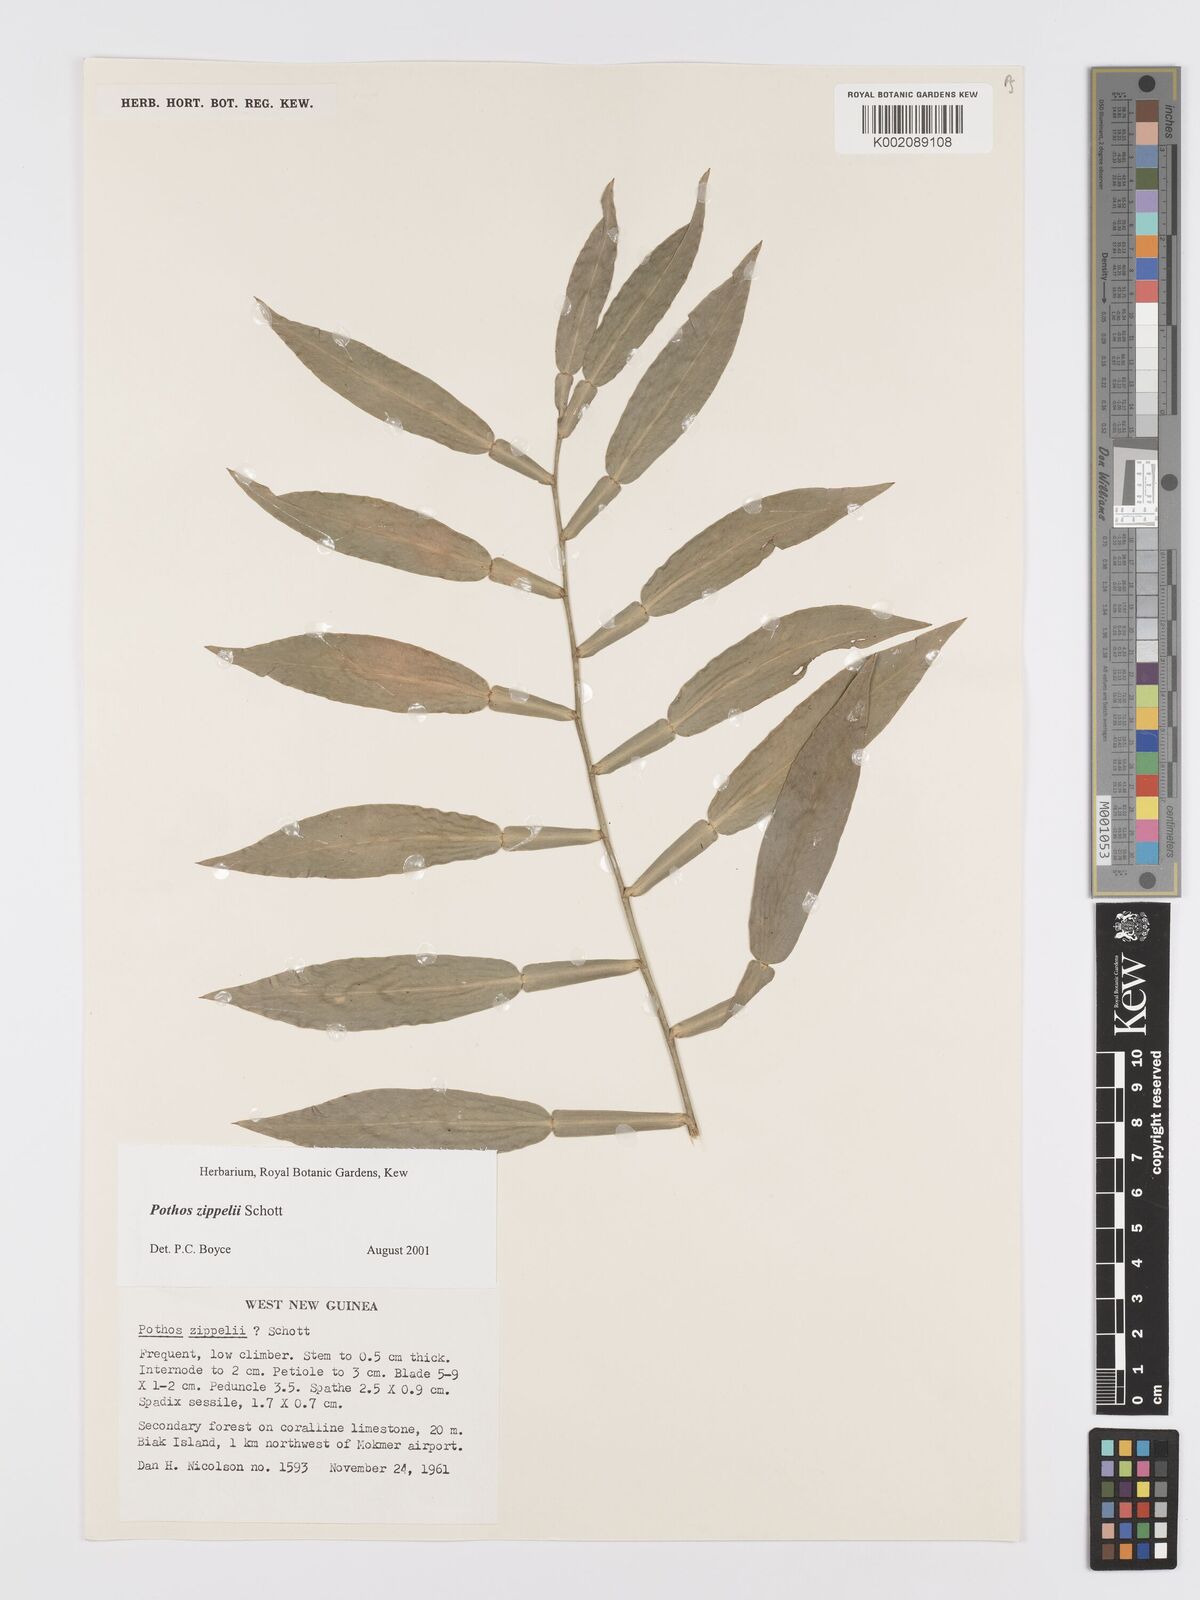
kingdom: Plantae
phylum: Tracheophyta
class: Liliopsida
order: Alismatales
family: Araceae
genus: Pothos
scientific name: Pothos zippelii
